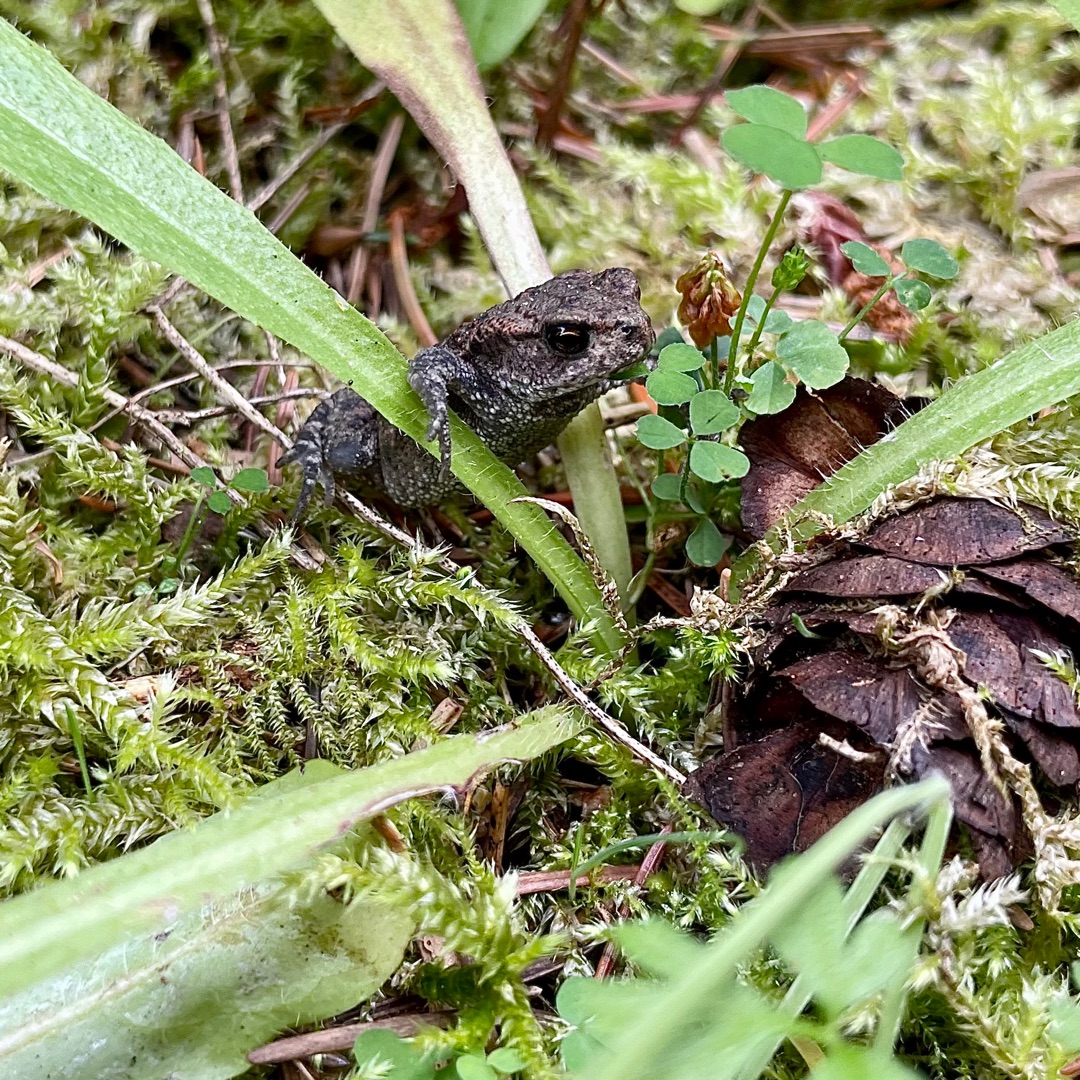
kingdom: Animalia
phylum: Chordata
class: Amphibia
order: Anura
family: Bufonidae
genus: Bufo
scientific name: Bufo bufo
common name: Skrubtudse
